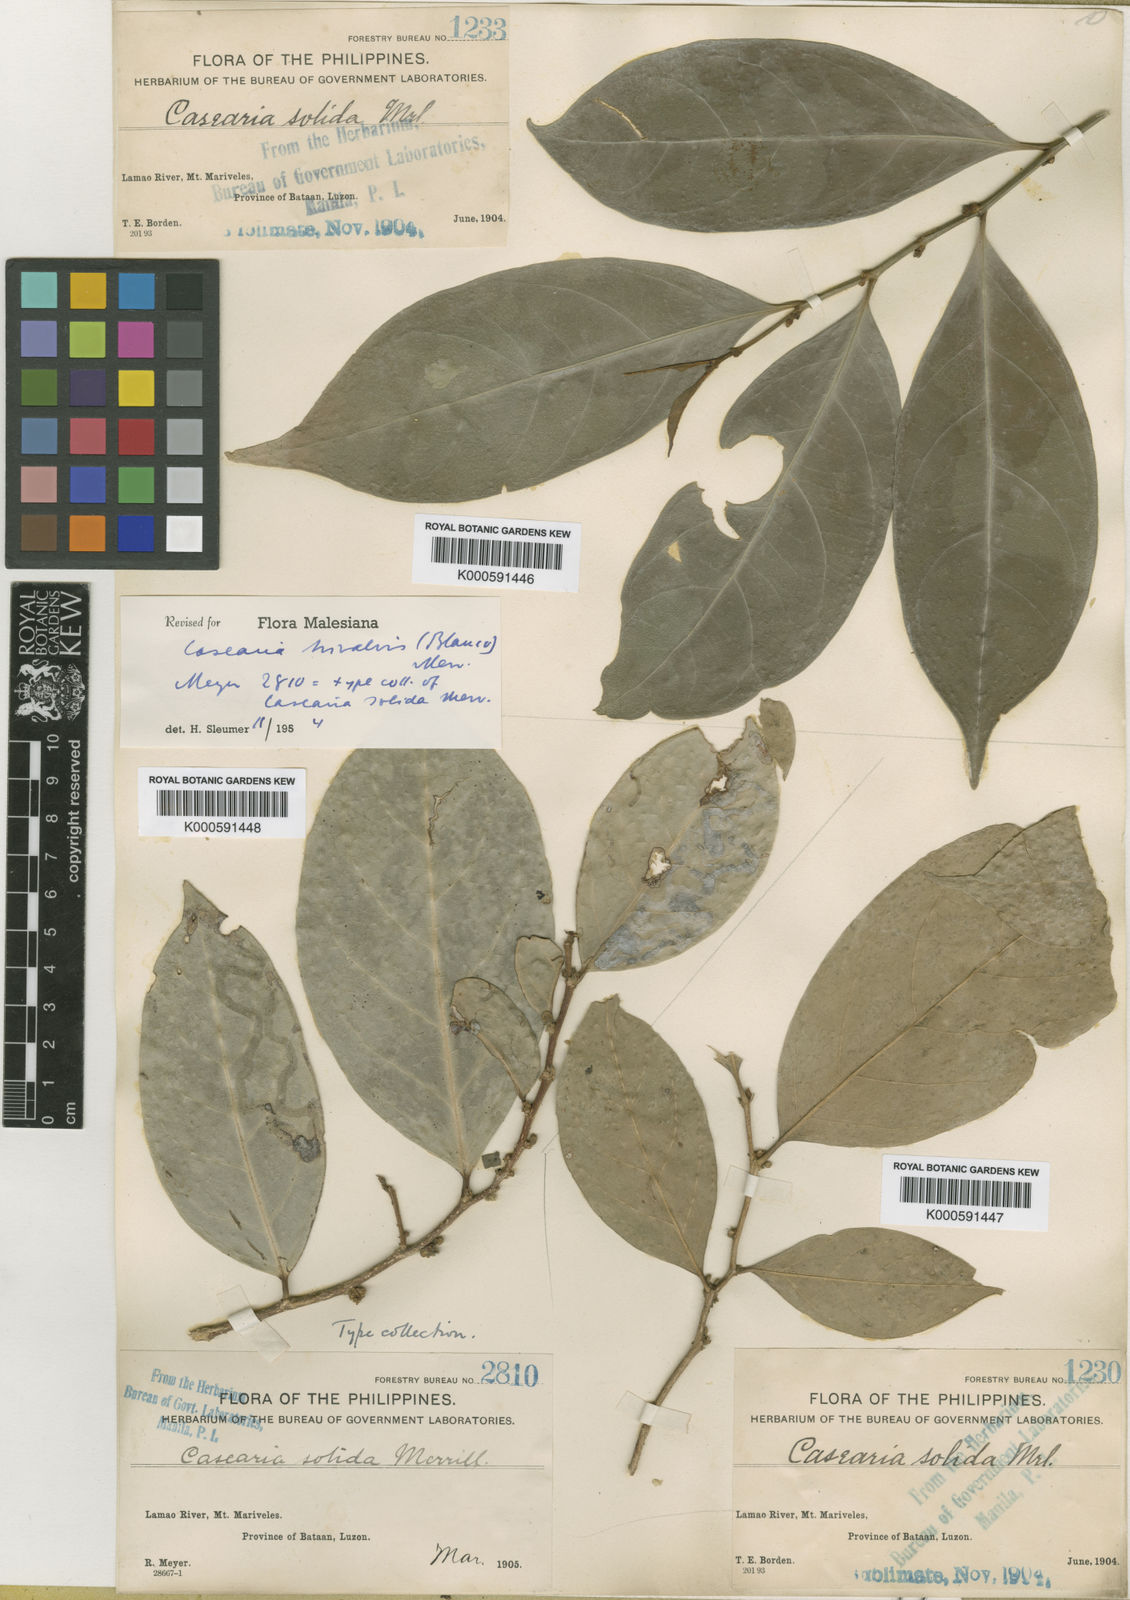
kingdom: Plantae
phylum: Tracheophyta
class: Magnoliopsida
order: Malpighiales
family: Salicaceae
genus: Casearia
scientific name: Casearia trivalvis
